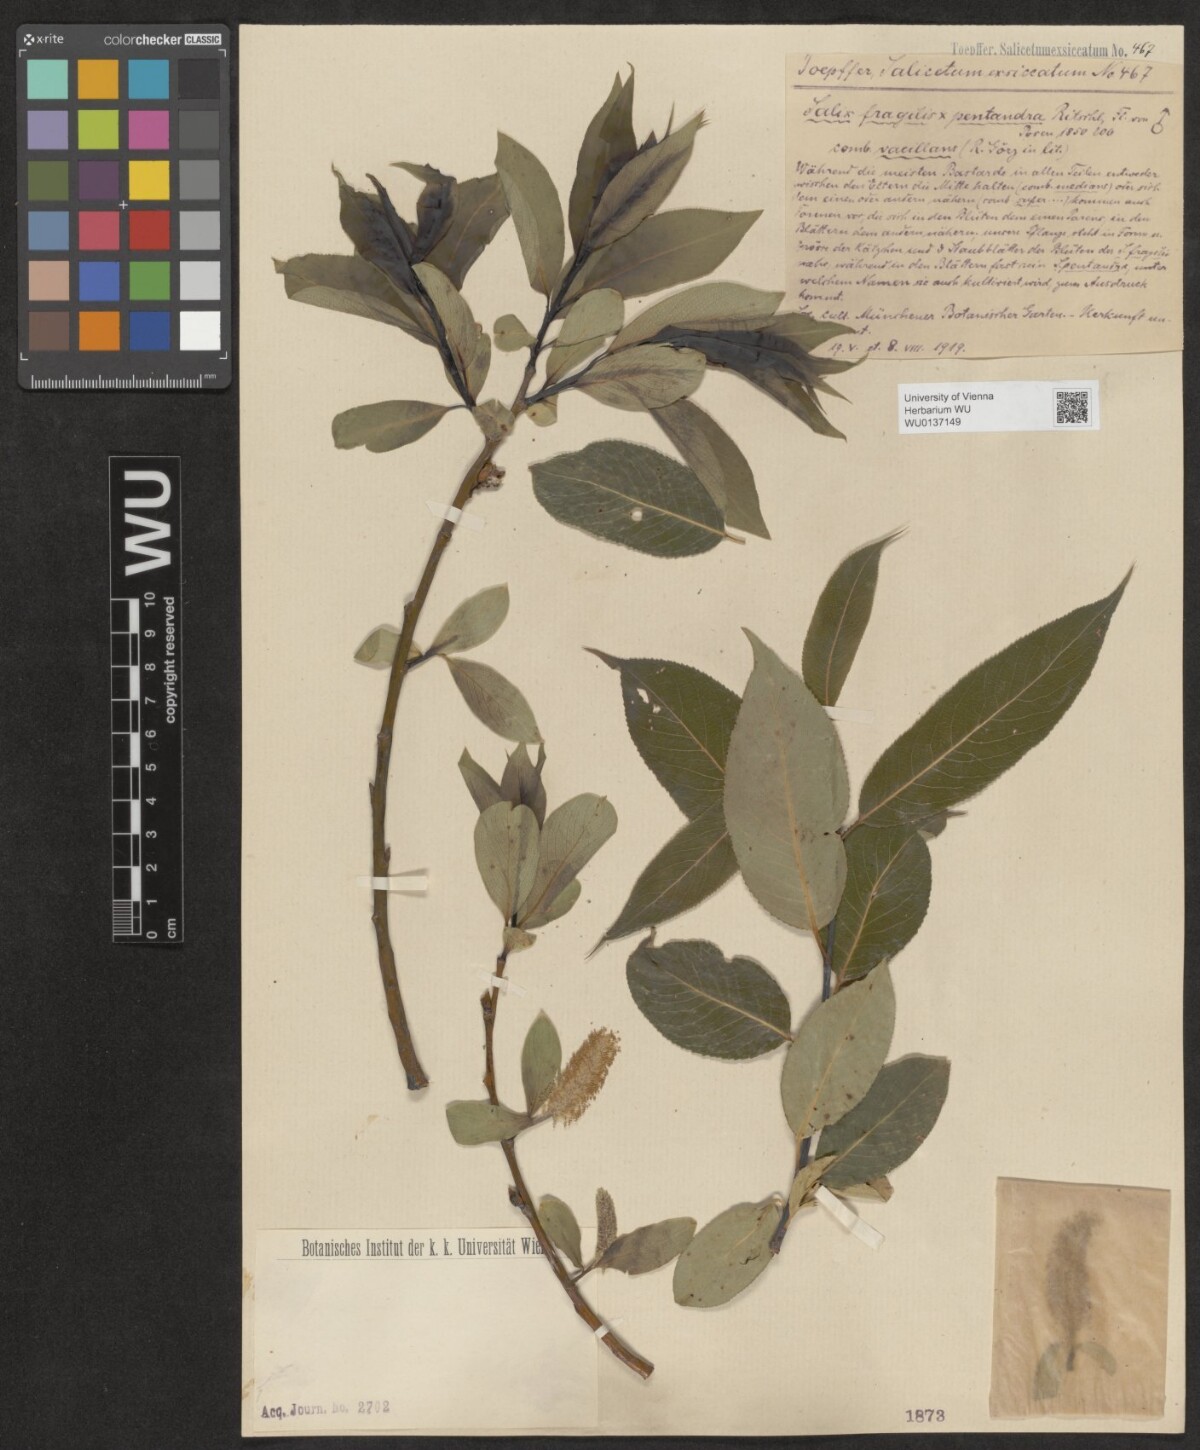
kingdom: Plantae
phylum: Tracheophyta
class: Magnoliopsida
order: Malpighiales
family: Salicaceae
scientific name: Salicaceae
